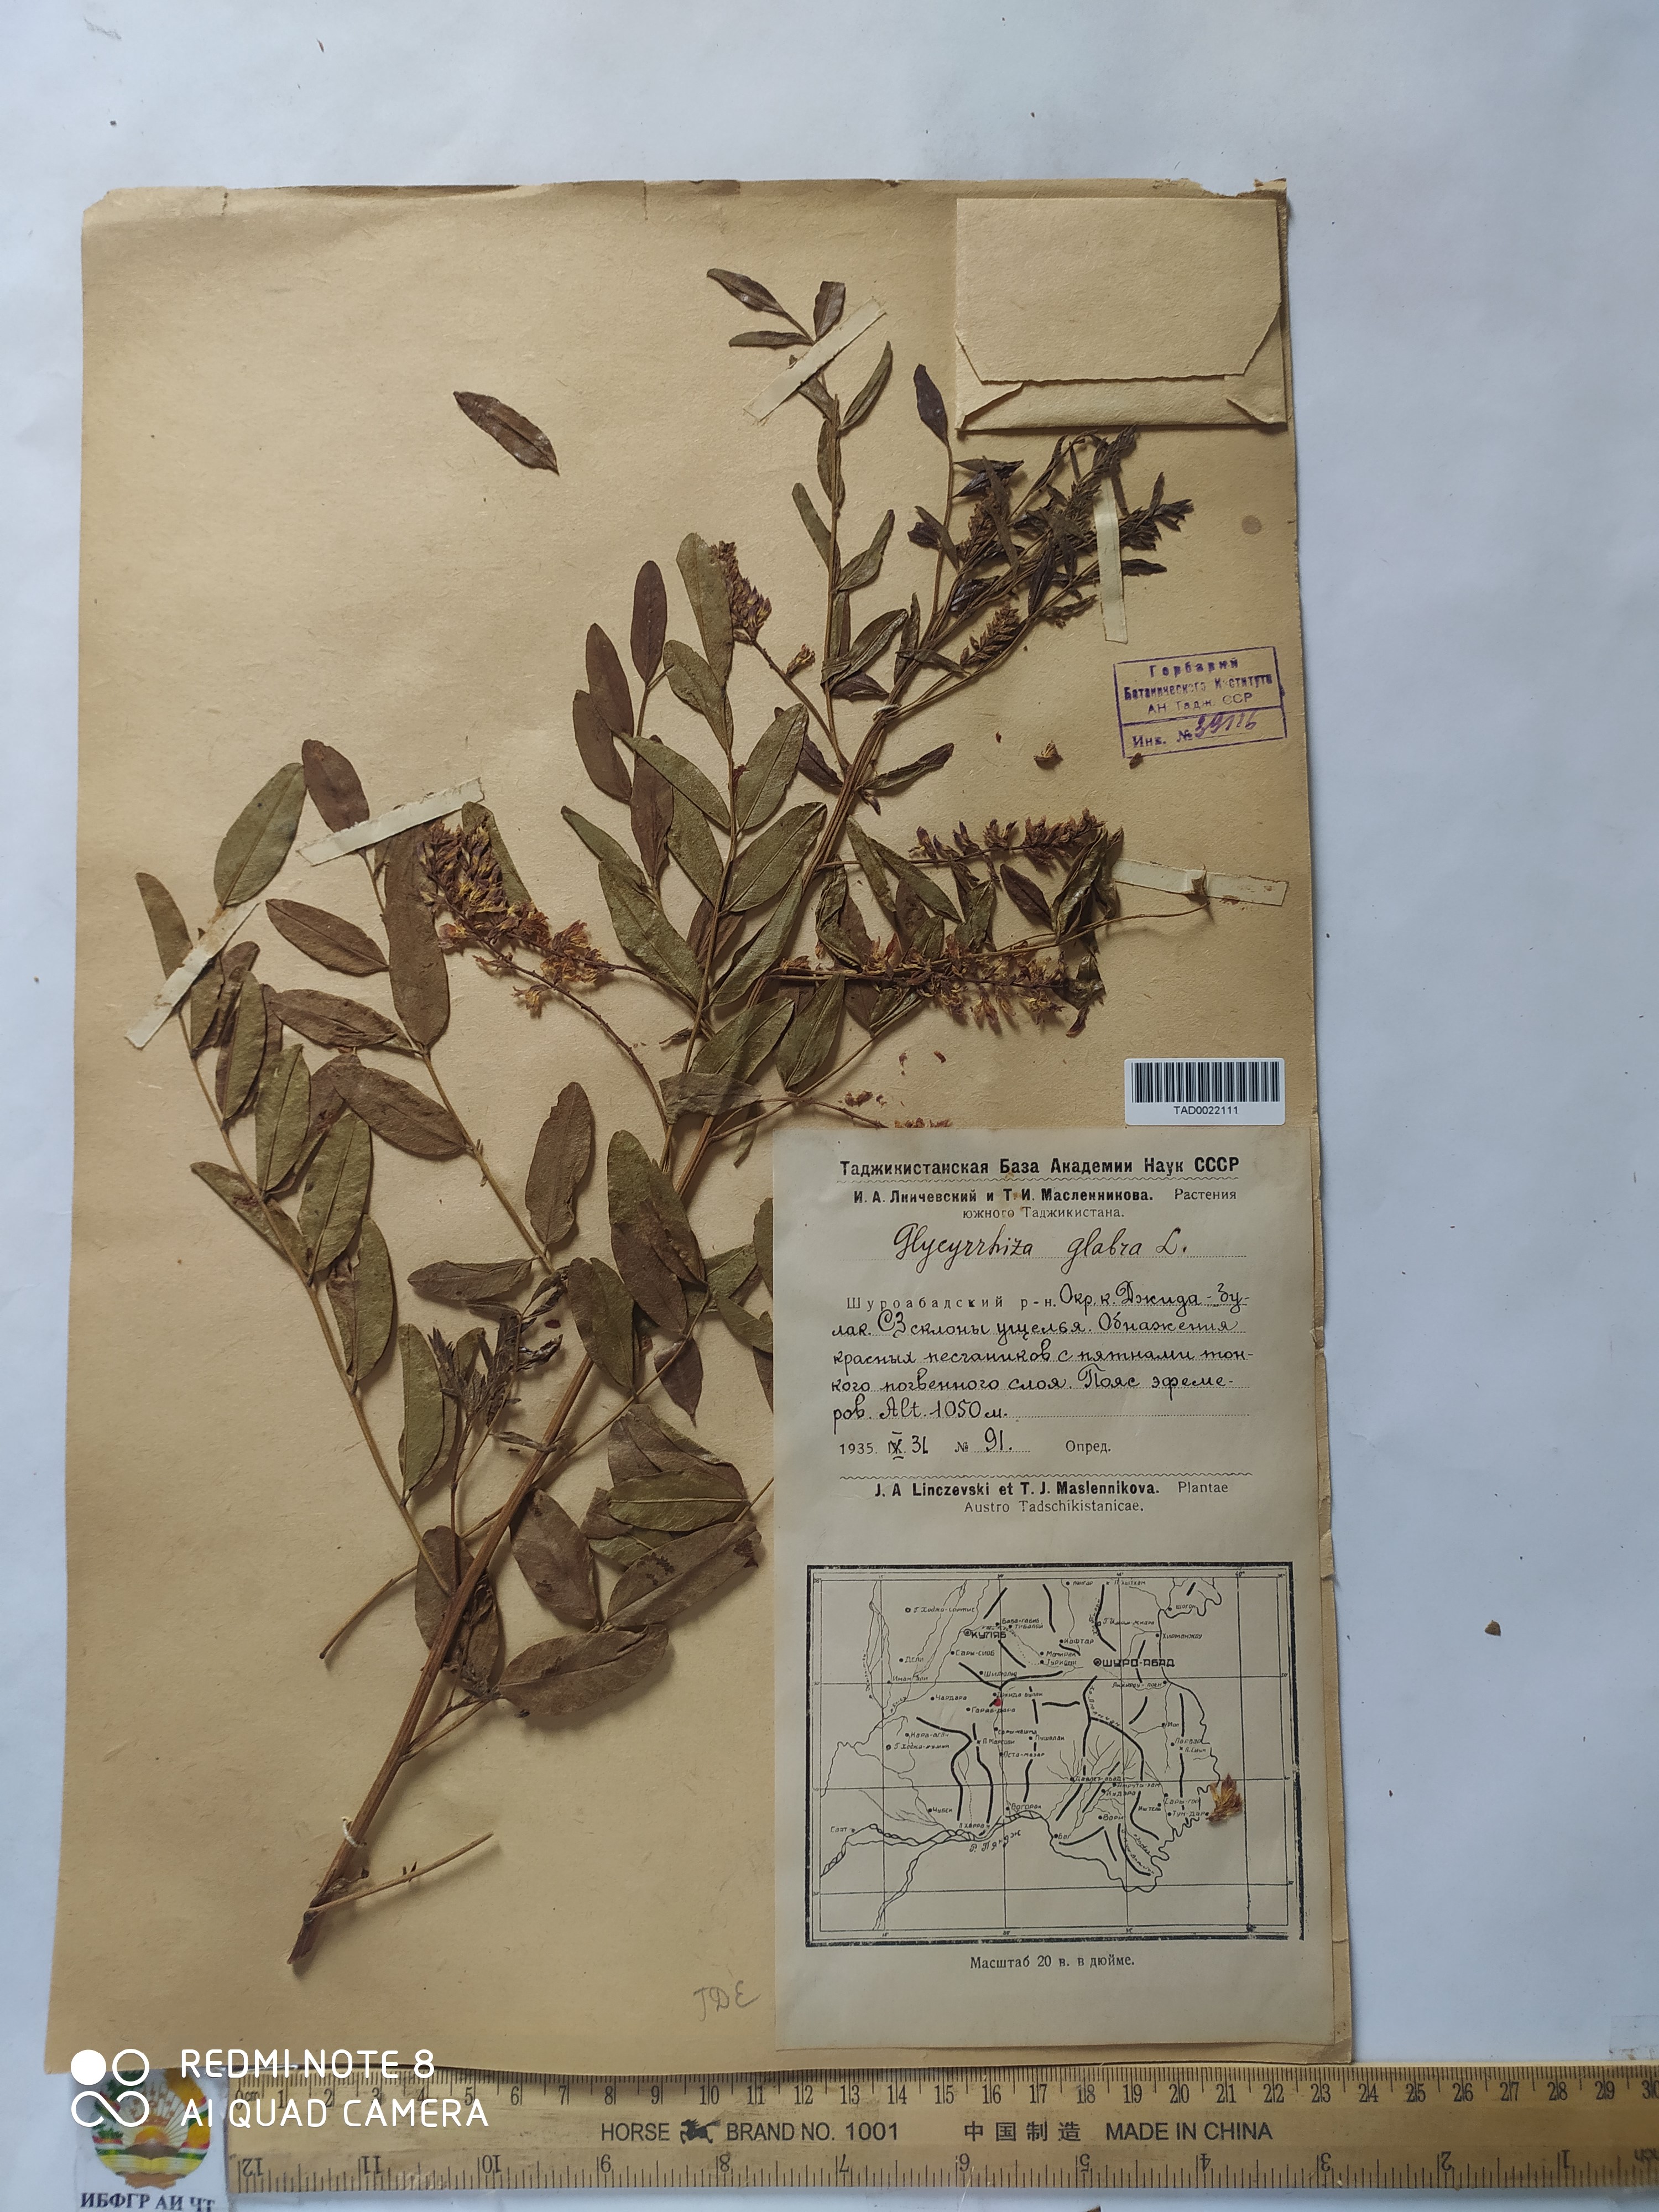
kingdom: Plantae
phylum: Tracheophyta
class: Magnoliopsida
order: Fabales
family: Fabaceae
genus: Glycyrrhiza
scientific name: Glycyrrhiza glabra
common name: Liquorice
